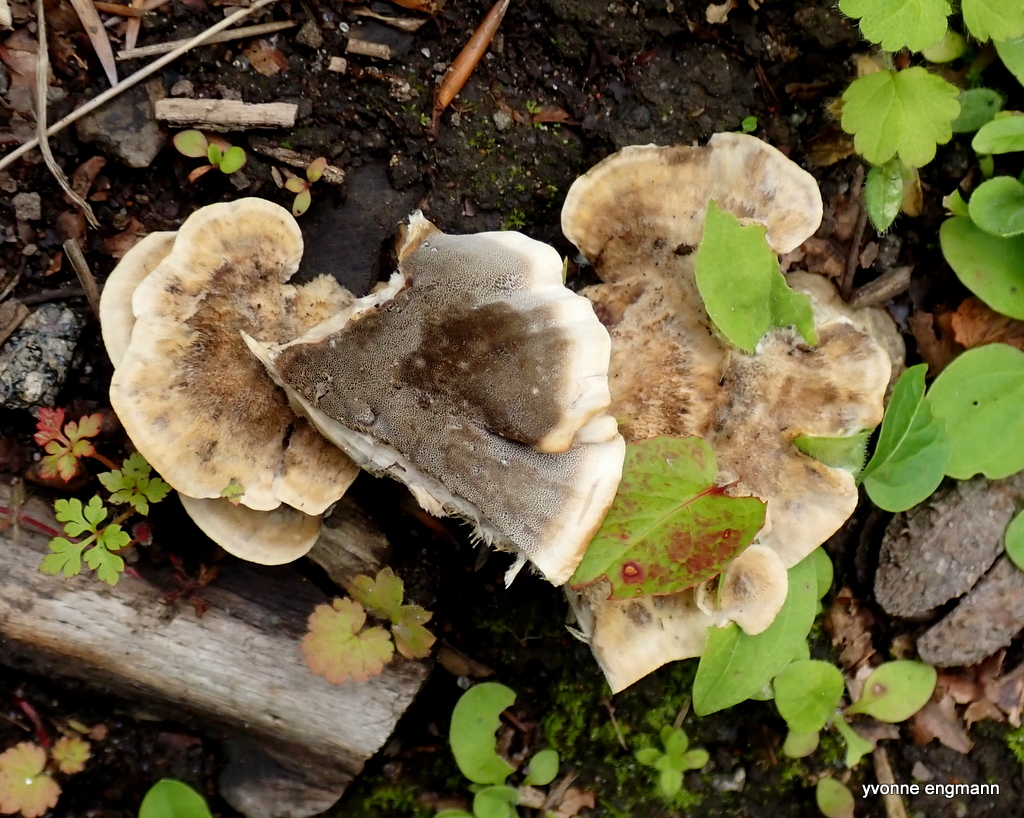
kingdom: Fungi
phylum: Basidiomycota
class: Agaricomycetes
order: Polyporales
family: Phanerochaetaceae
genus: Bjerkandera
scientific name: Bjerkandera adusta
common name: sveden sodporesvamp
